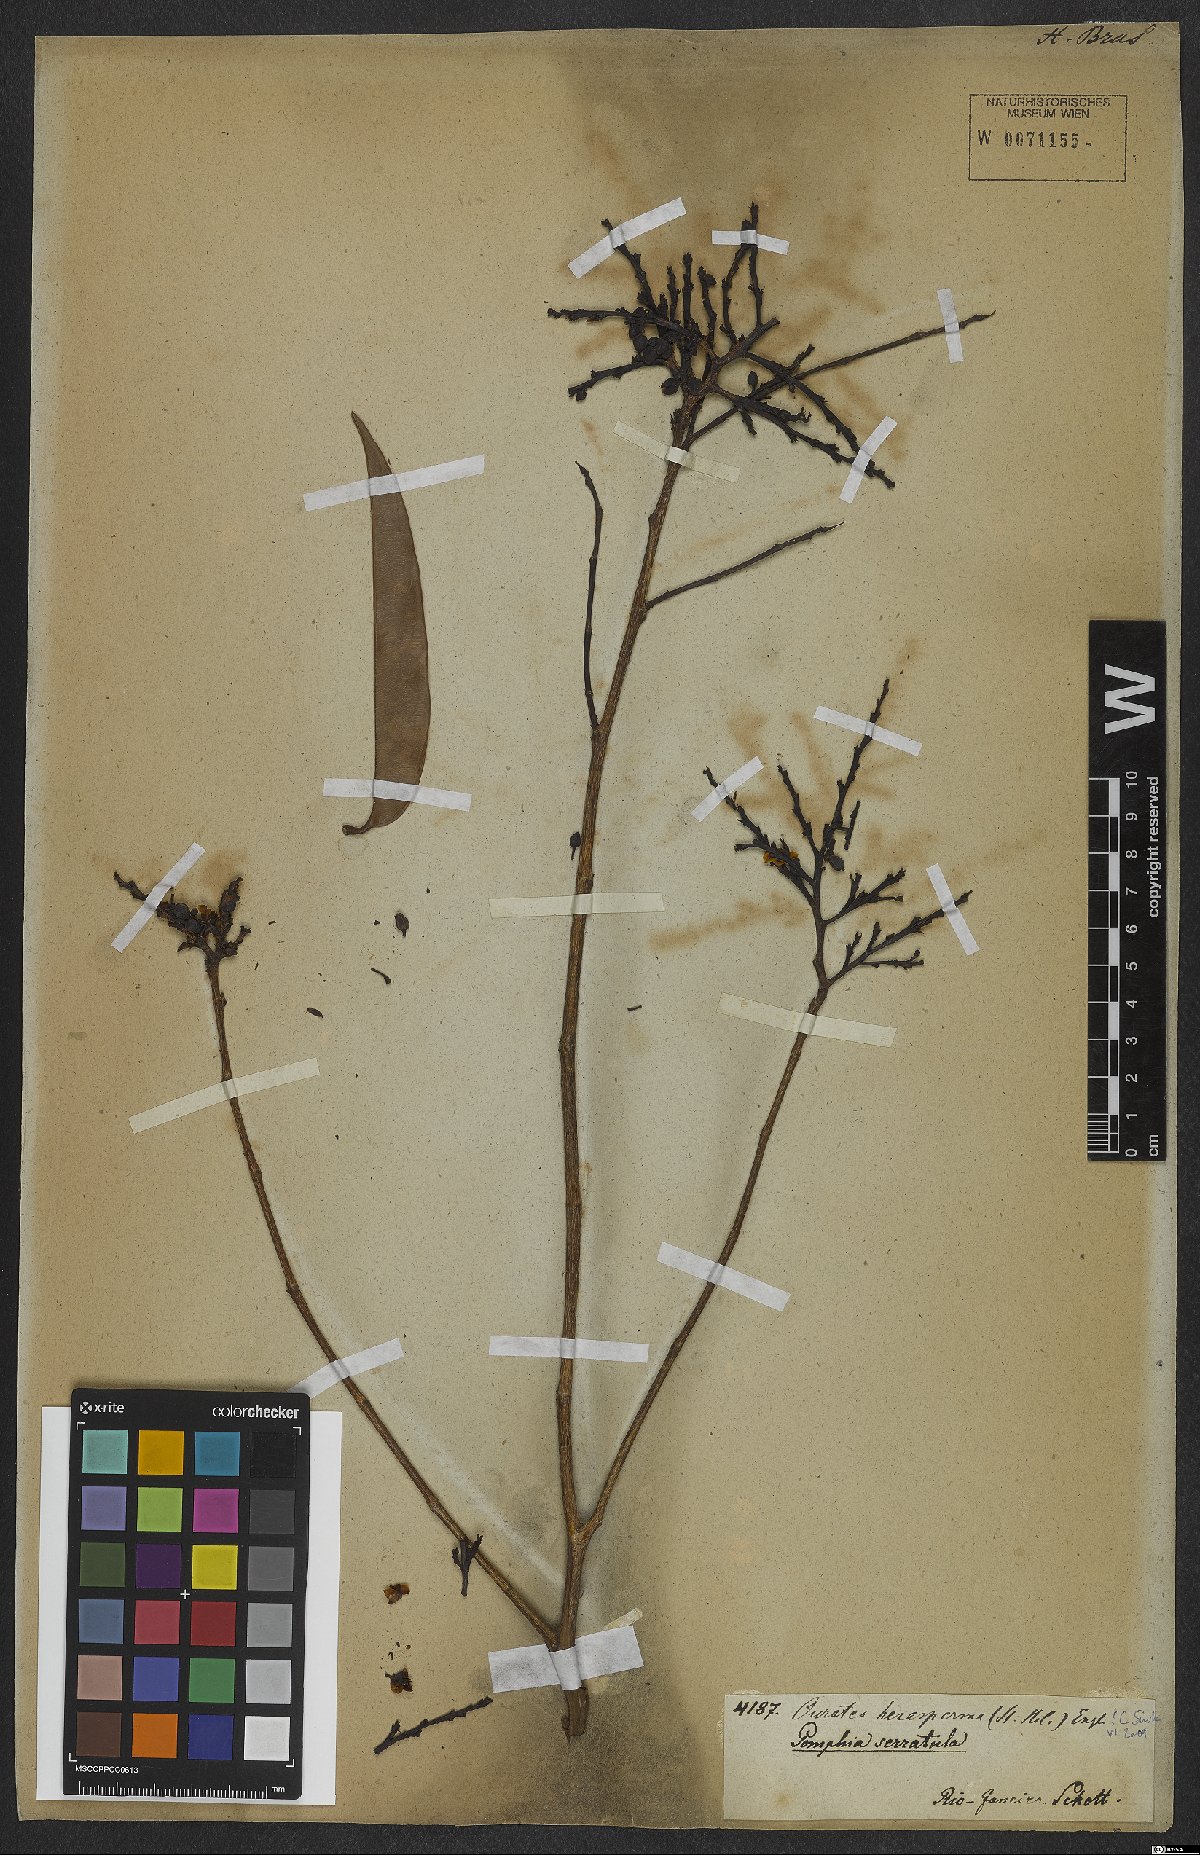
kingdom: Plantae
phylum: Tracheophyta
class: Magnoliopsida
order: Malpighiales
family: Ochnaceae
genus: Ouratea
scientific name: Ouratea hexasperma
